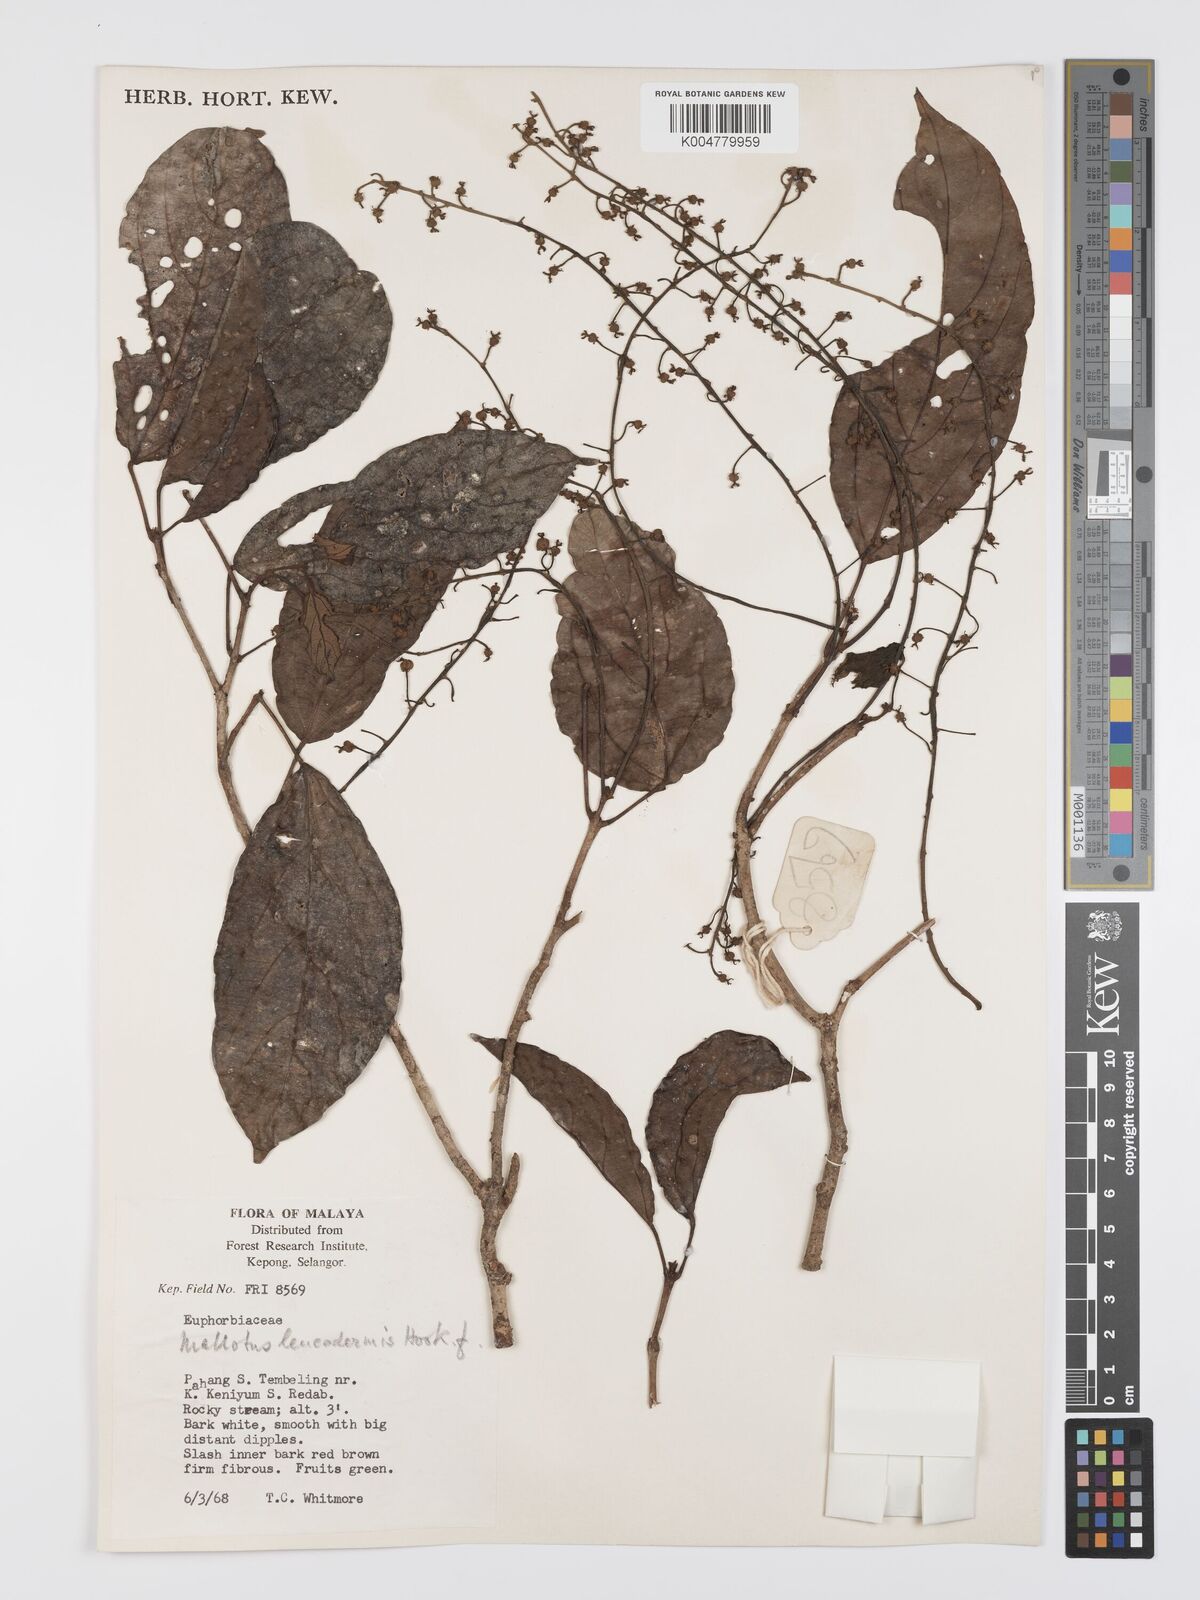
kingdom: Plantae
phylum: Tracheophyta
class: Magnoliopsida
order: Malpighiales
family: Euphorbiaceae
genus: Mallotus
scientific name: Mallotus leucodermis
